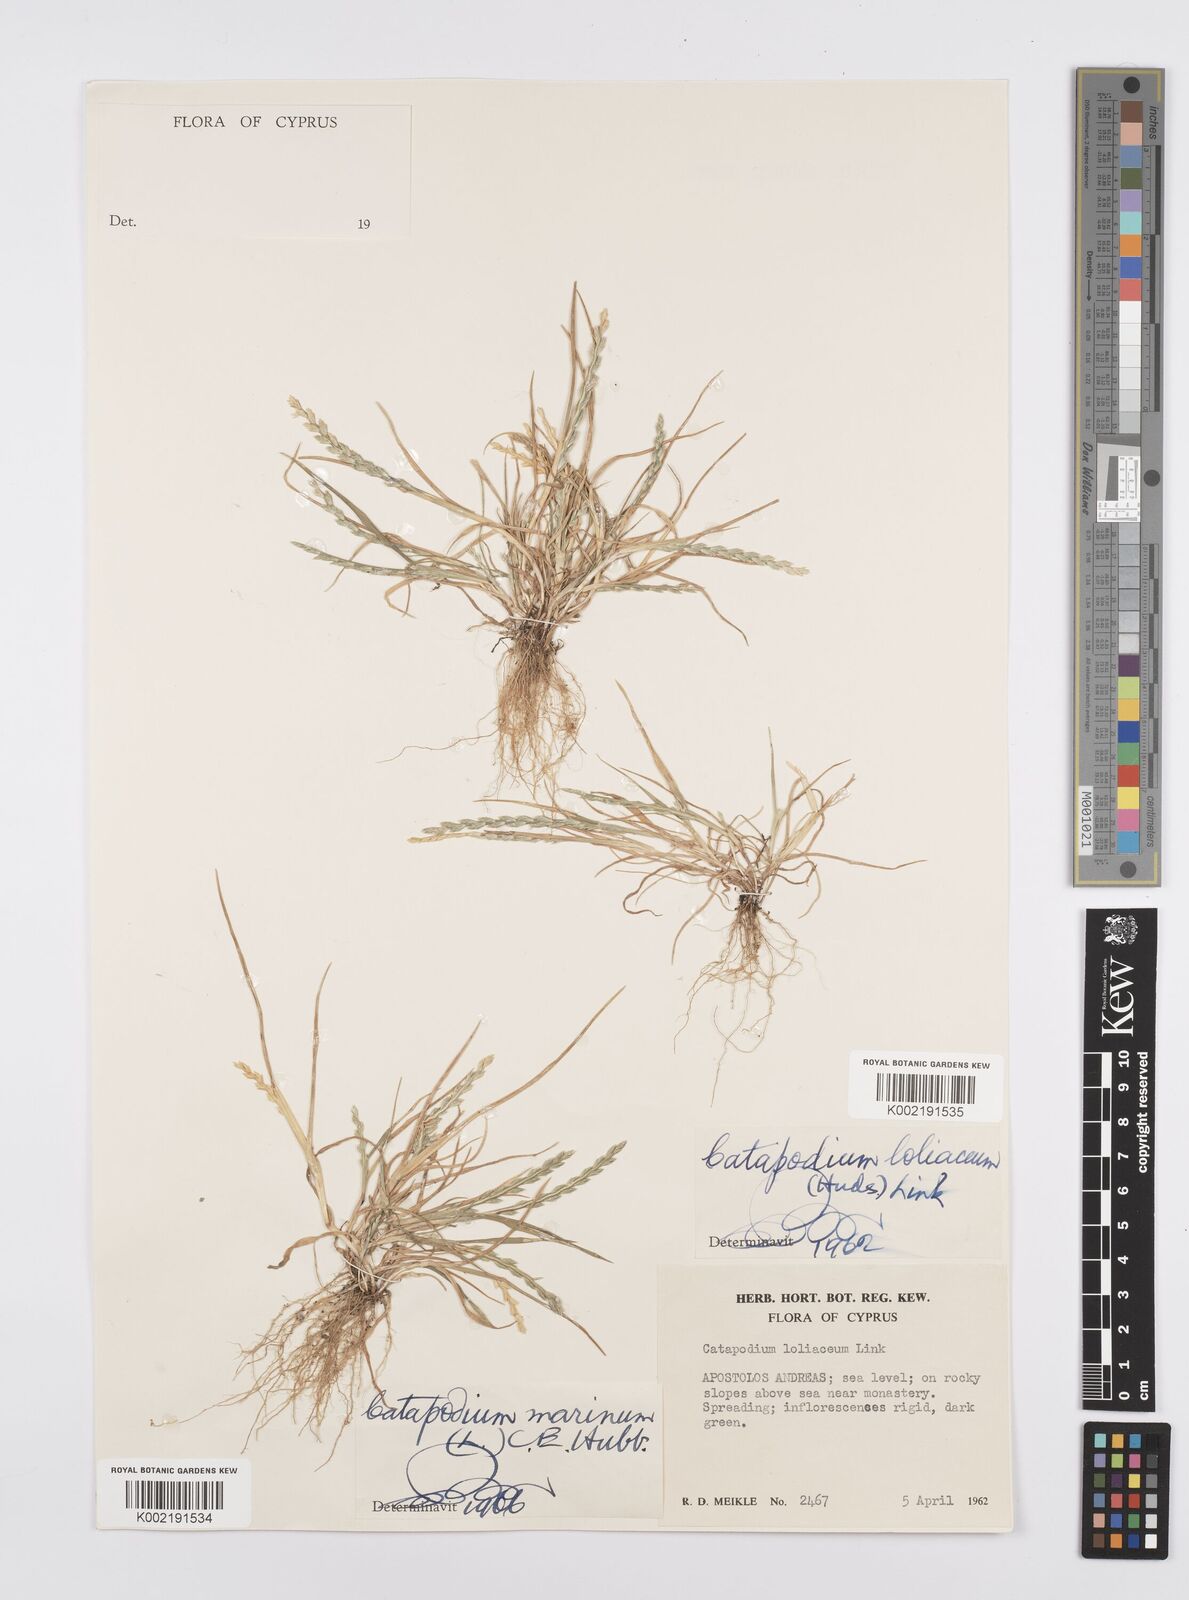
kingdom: Plantae
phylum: Tracheophyta
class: Liliopsida
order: Poales
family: Poaceae
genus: Catapodium
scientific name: Catapodium marinum
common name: Sea fern-grass
